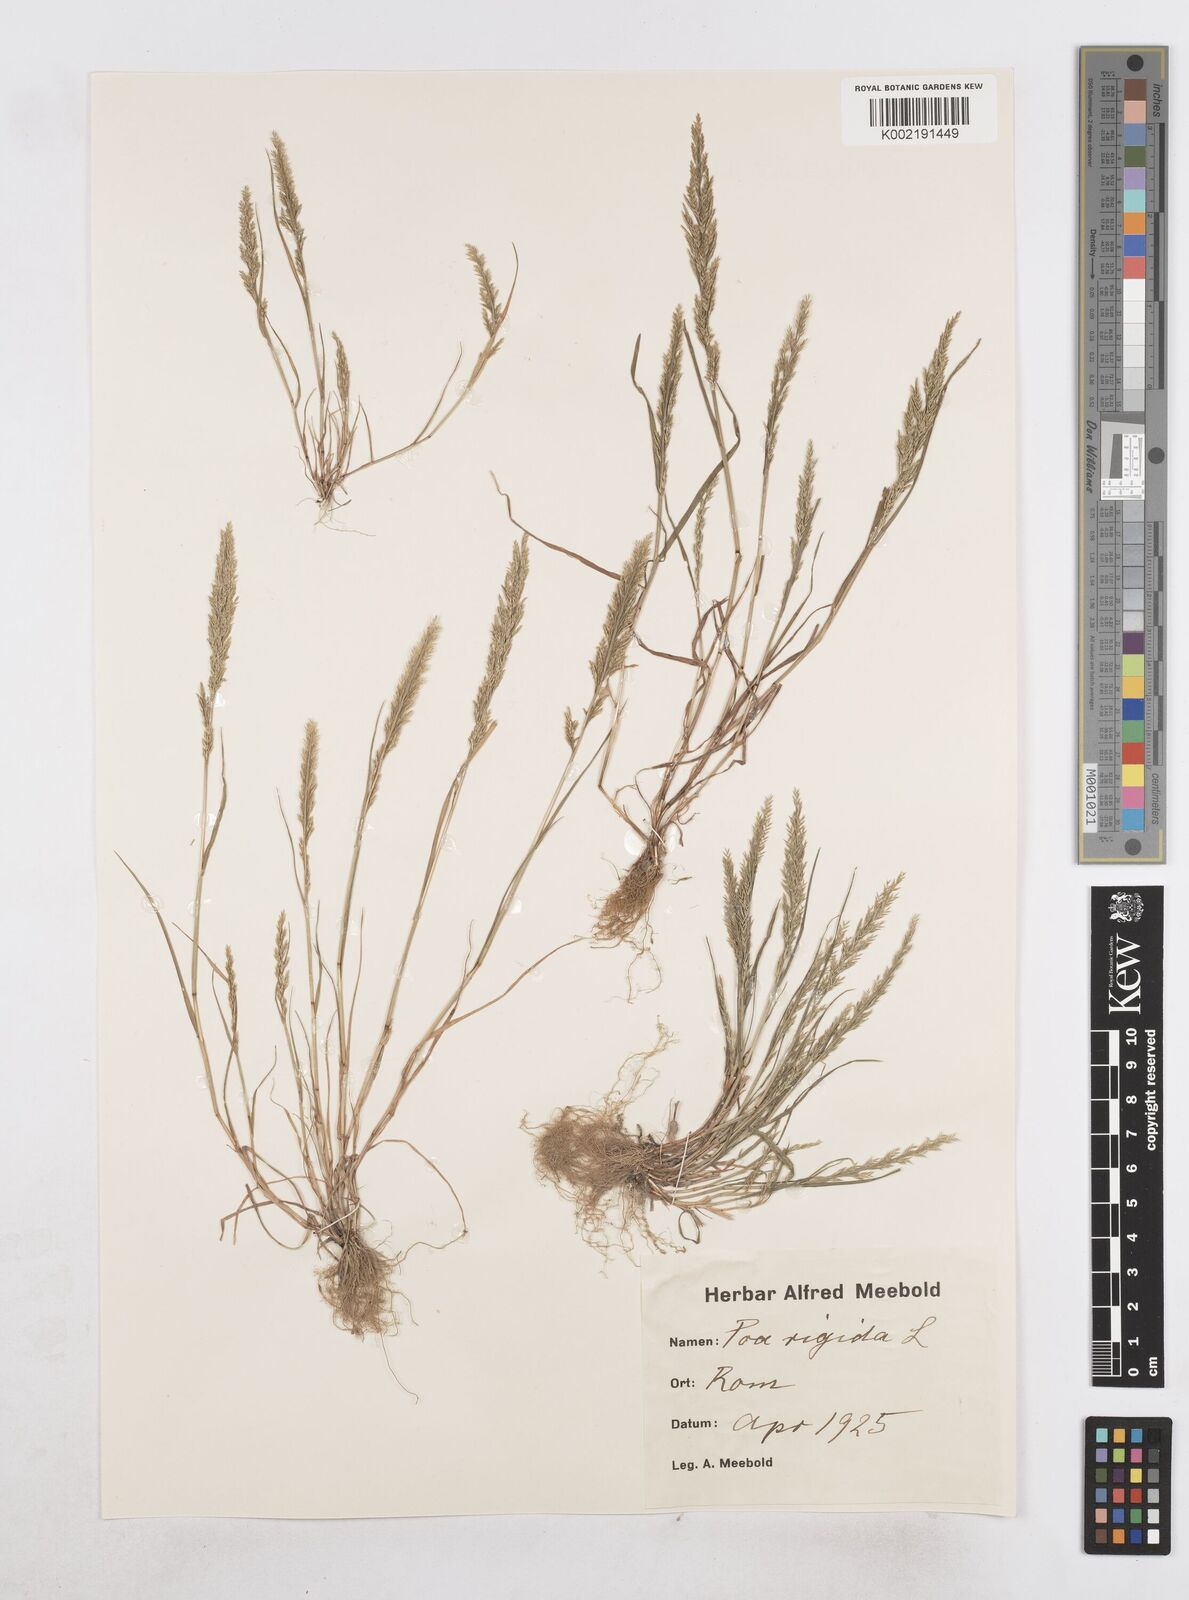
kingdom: Plantae
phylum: Tracheophyta
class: Liliopsida
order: Poales
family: Poaceae
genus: Catapodium
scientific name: Catapodium rigidum
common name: Fern-grass
